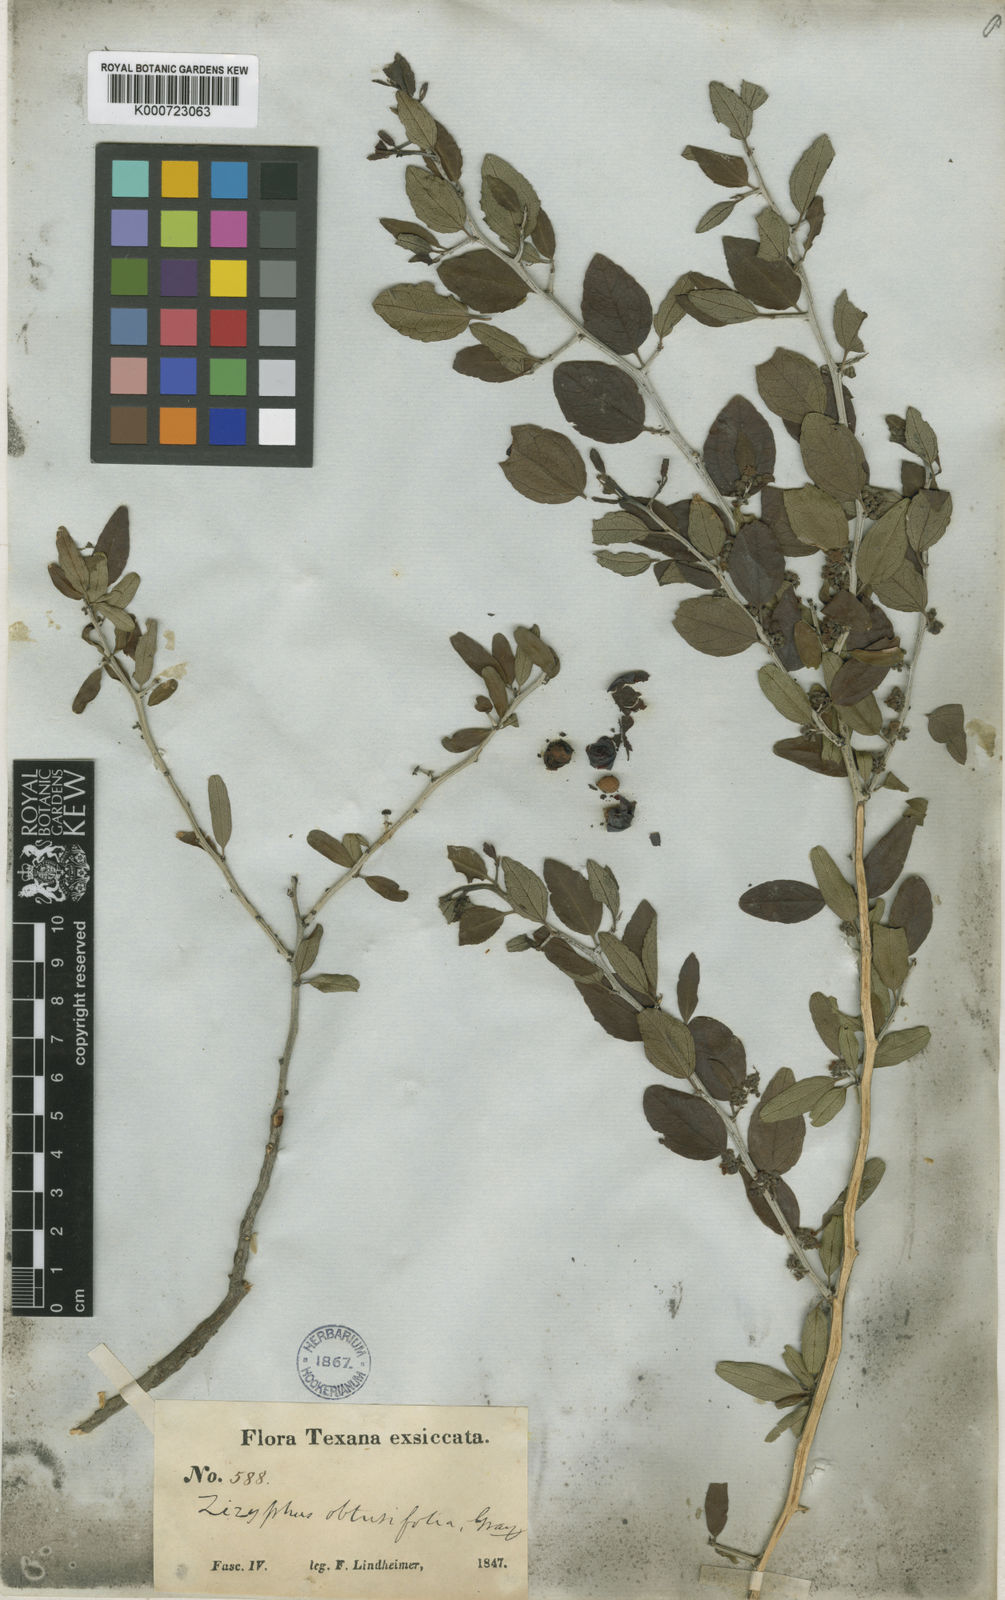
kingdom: Plantae
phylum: Tracheophyta
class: Magnoliopsida
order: Rosales
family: Rhamnaceae
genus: Sarcomphalus
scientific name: Sarcomphalus obtusifolius
